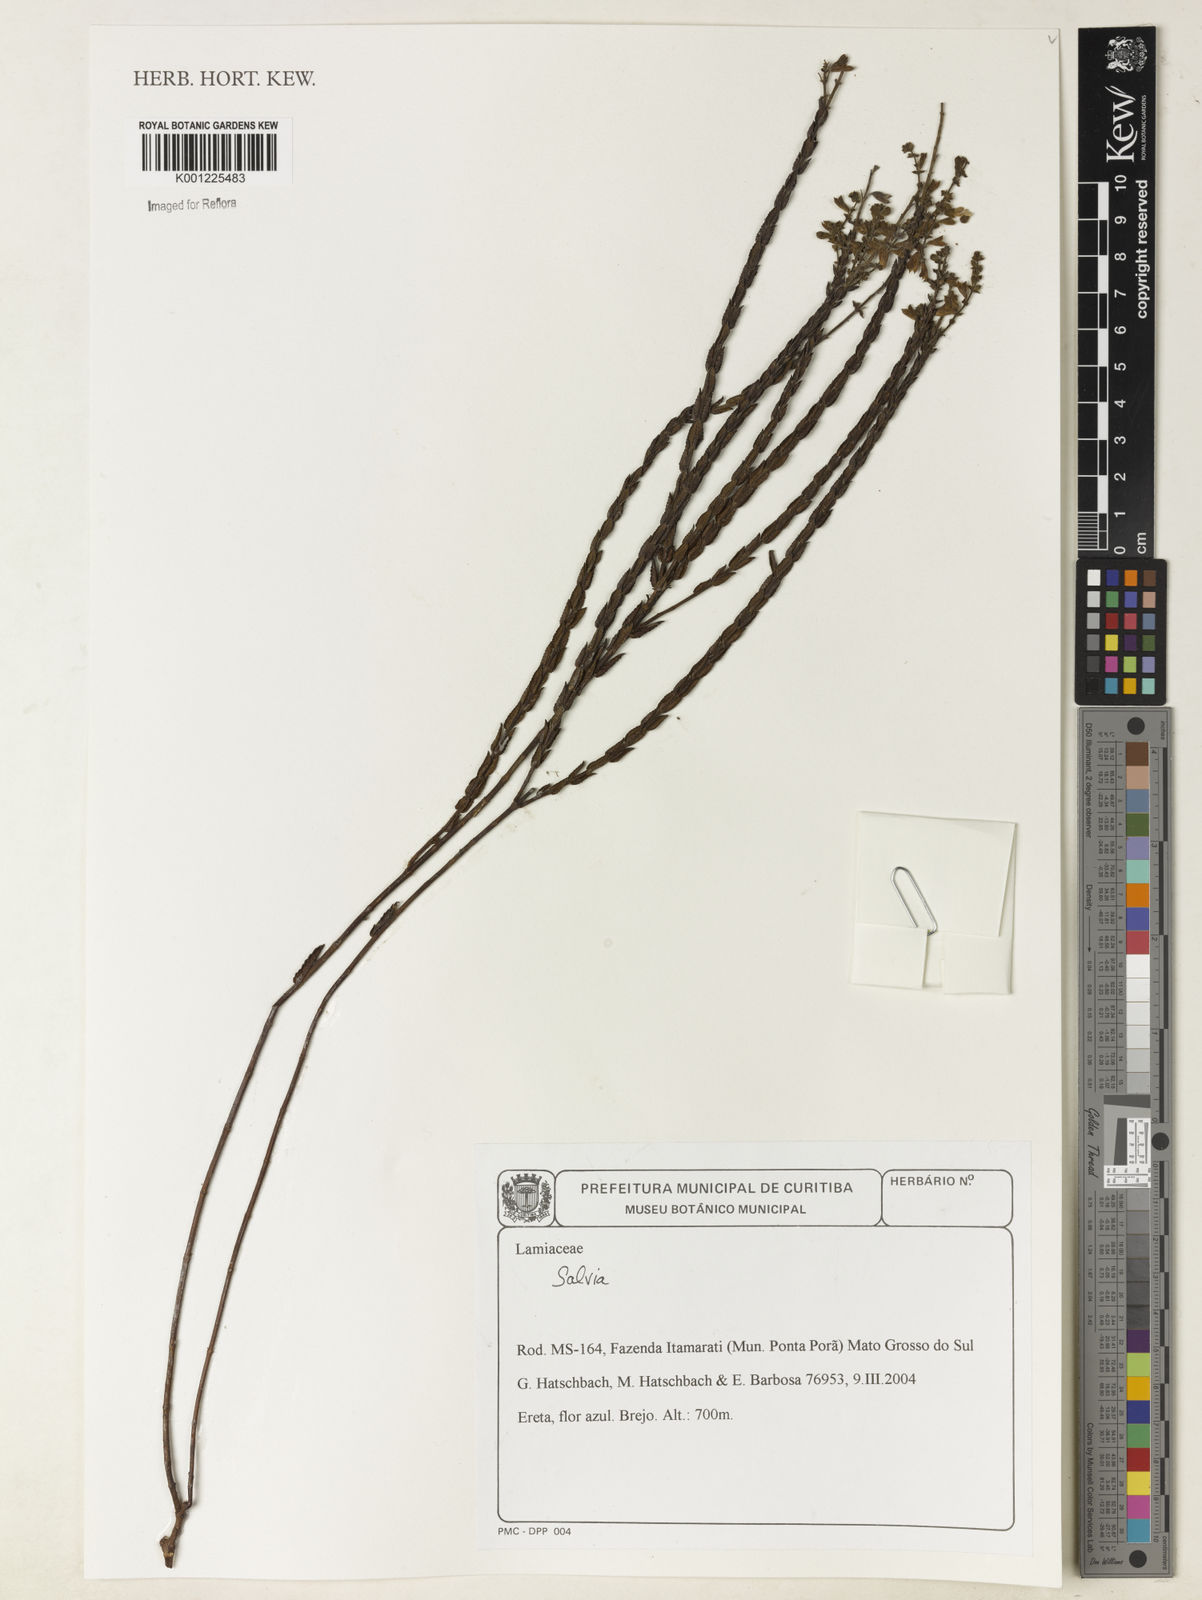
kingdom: Plantae
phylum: Tracheophyta
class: Magnoliopsida
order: Lamiales
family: Lamiaceae
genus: Salvia
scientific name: Salvia
